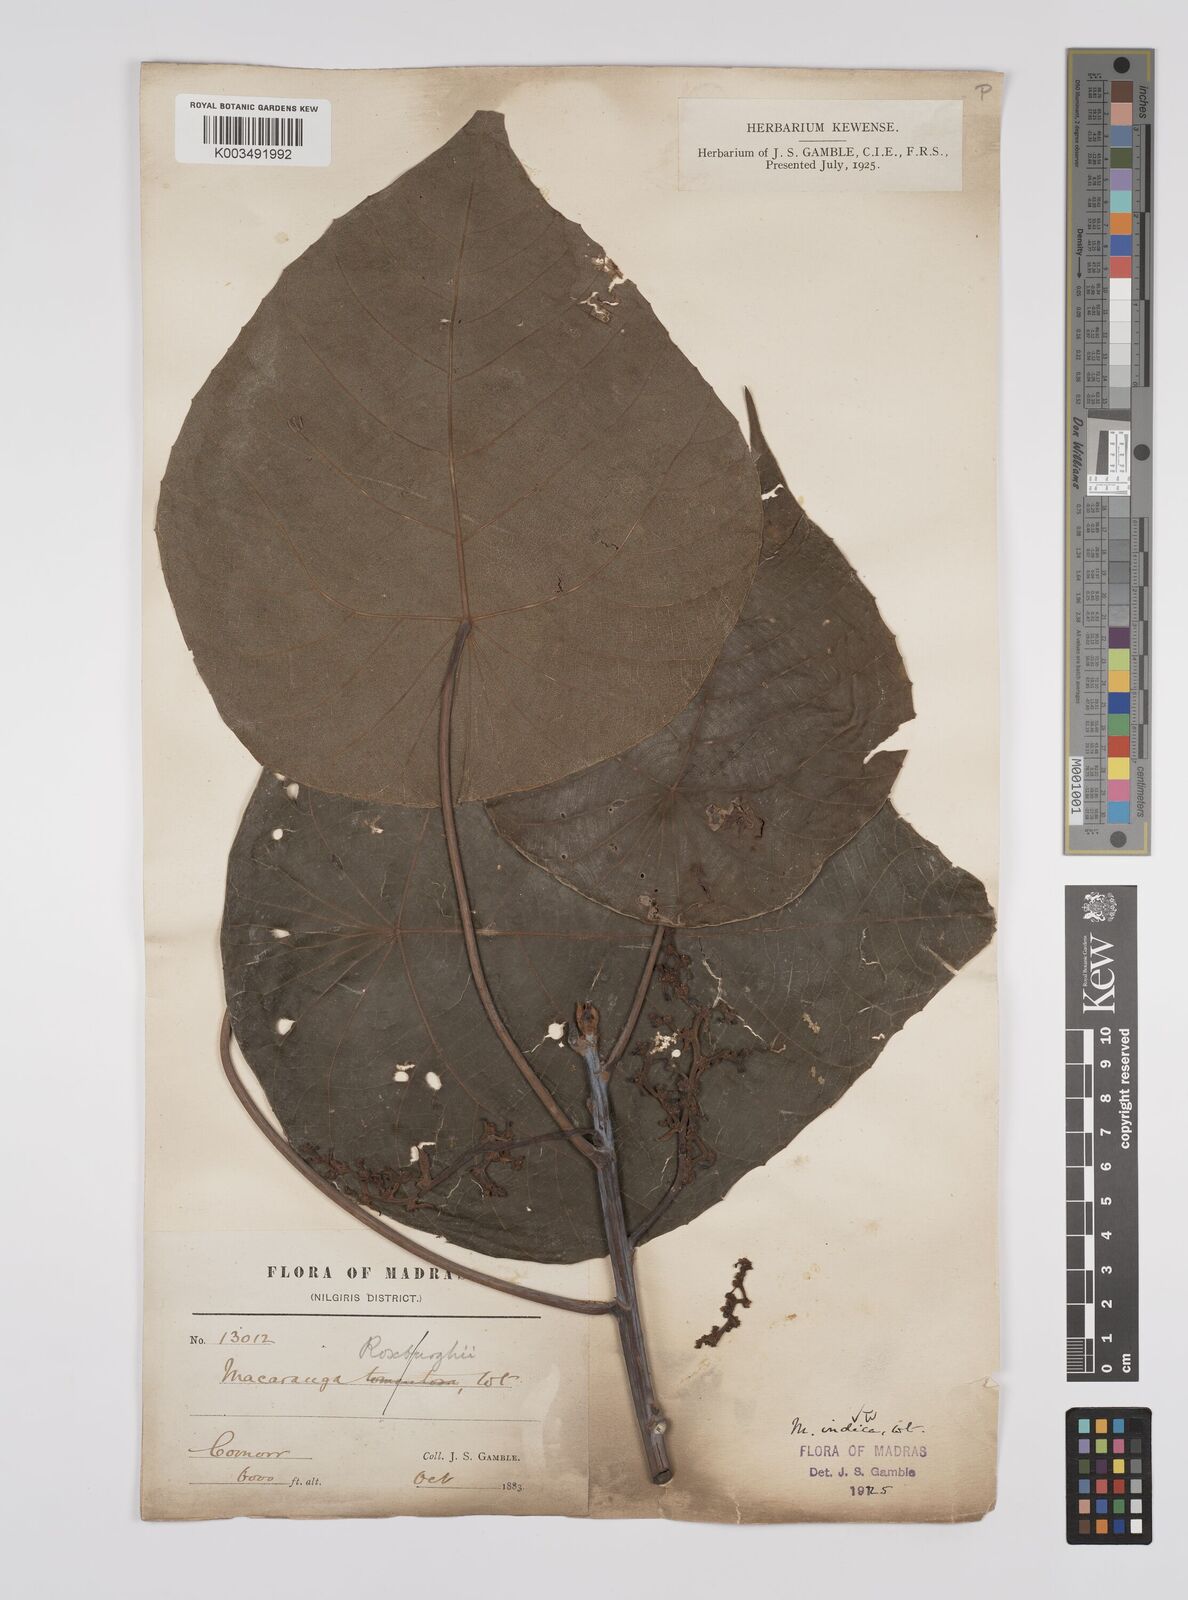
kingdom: Plantae
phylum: Tracheophyta
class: Magnoliopsida
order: Malpighiales
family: Euphorbiaceae
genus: Macaranga
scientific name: Macaranga indica
